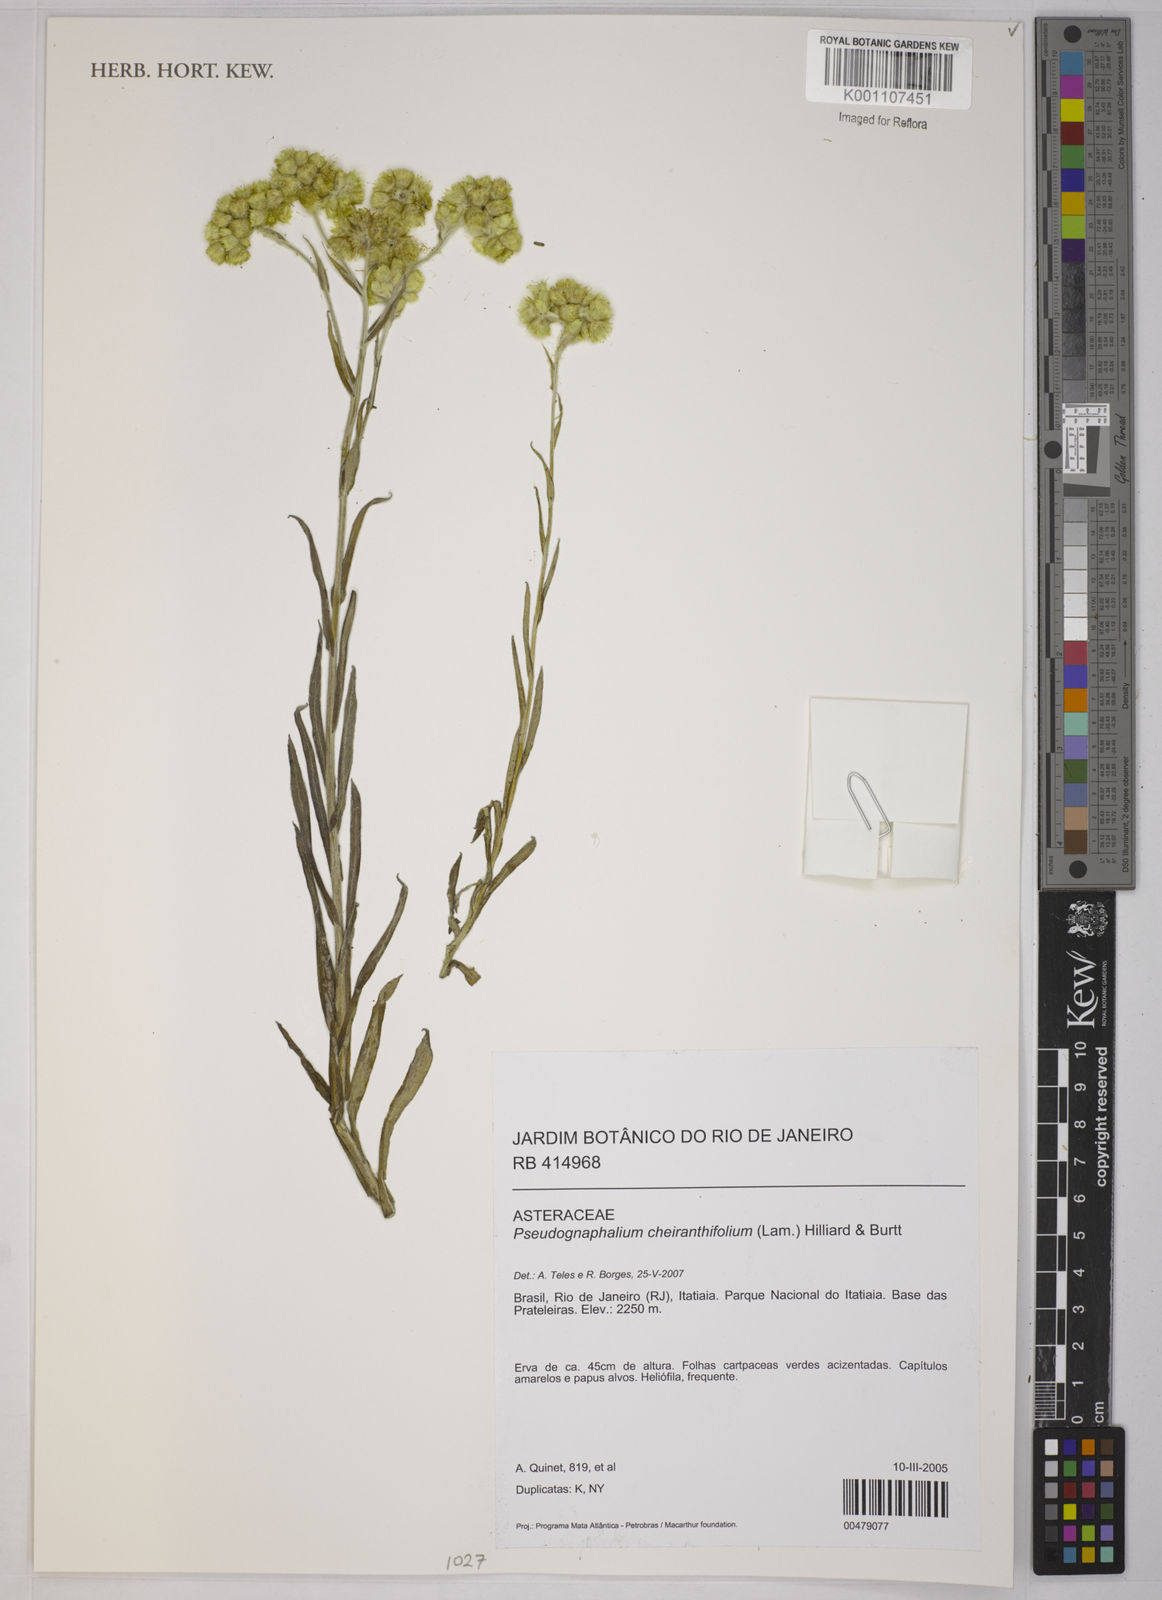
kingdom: Plantae
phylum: Tracheophyta
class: Magnoliopsida
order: Asterales
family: Asteraceae
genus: Pseudognaphalium
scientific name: Pseudognaphalium cheiranthifolium
